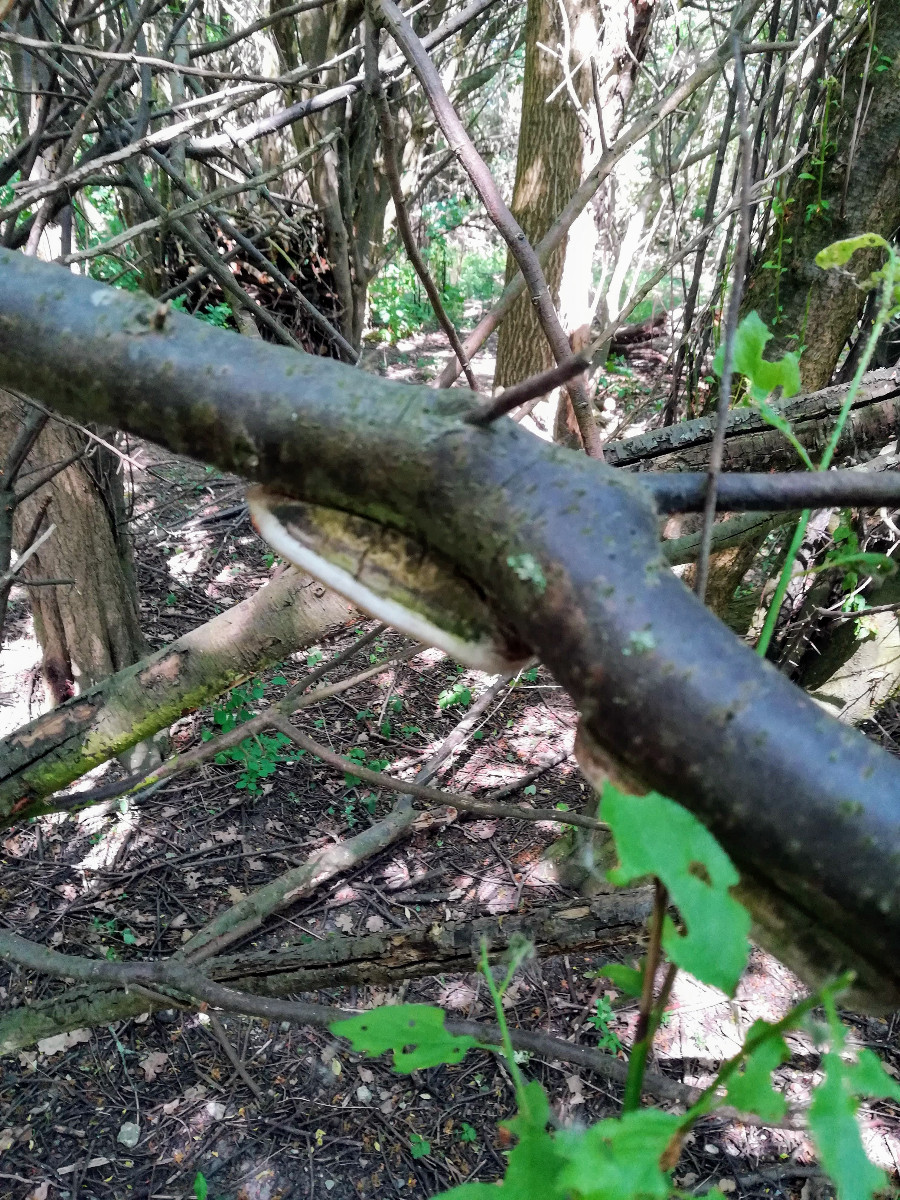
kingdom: Fungi
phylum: Basidiomycota
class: Agaricomycetes
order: Hymenochaetales
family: Hymenochaetaceae
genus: Phellinus
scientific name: Phellinus pomaceus
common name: blomme-ildporesvamp
